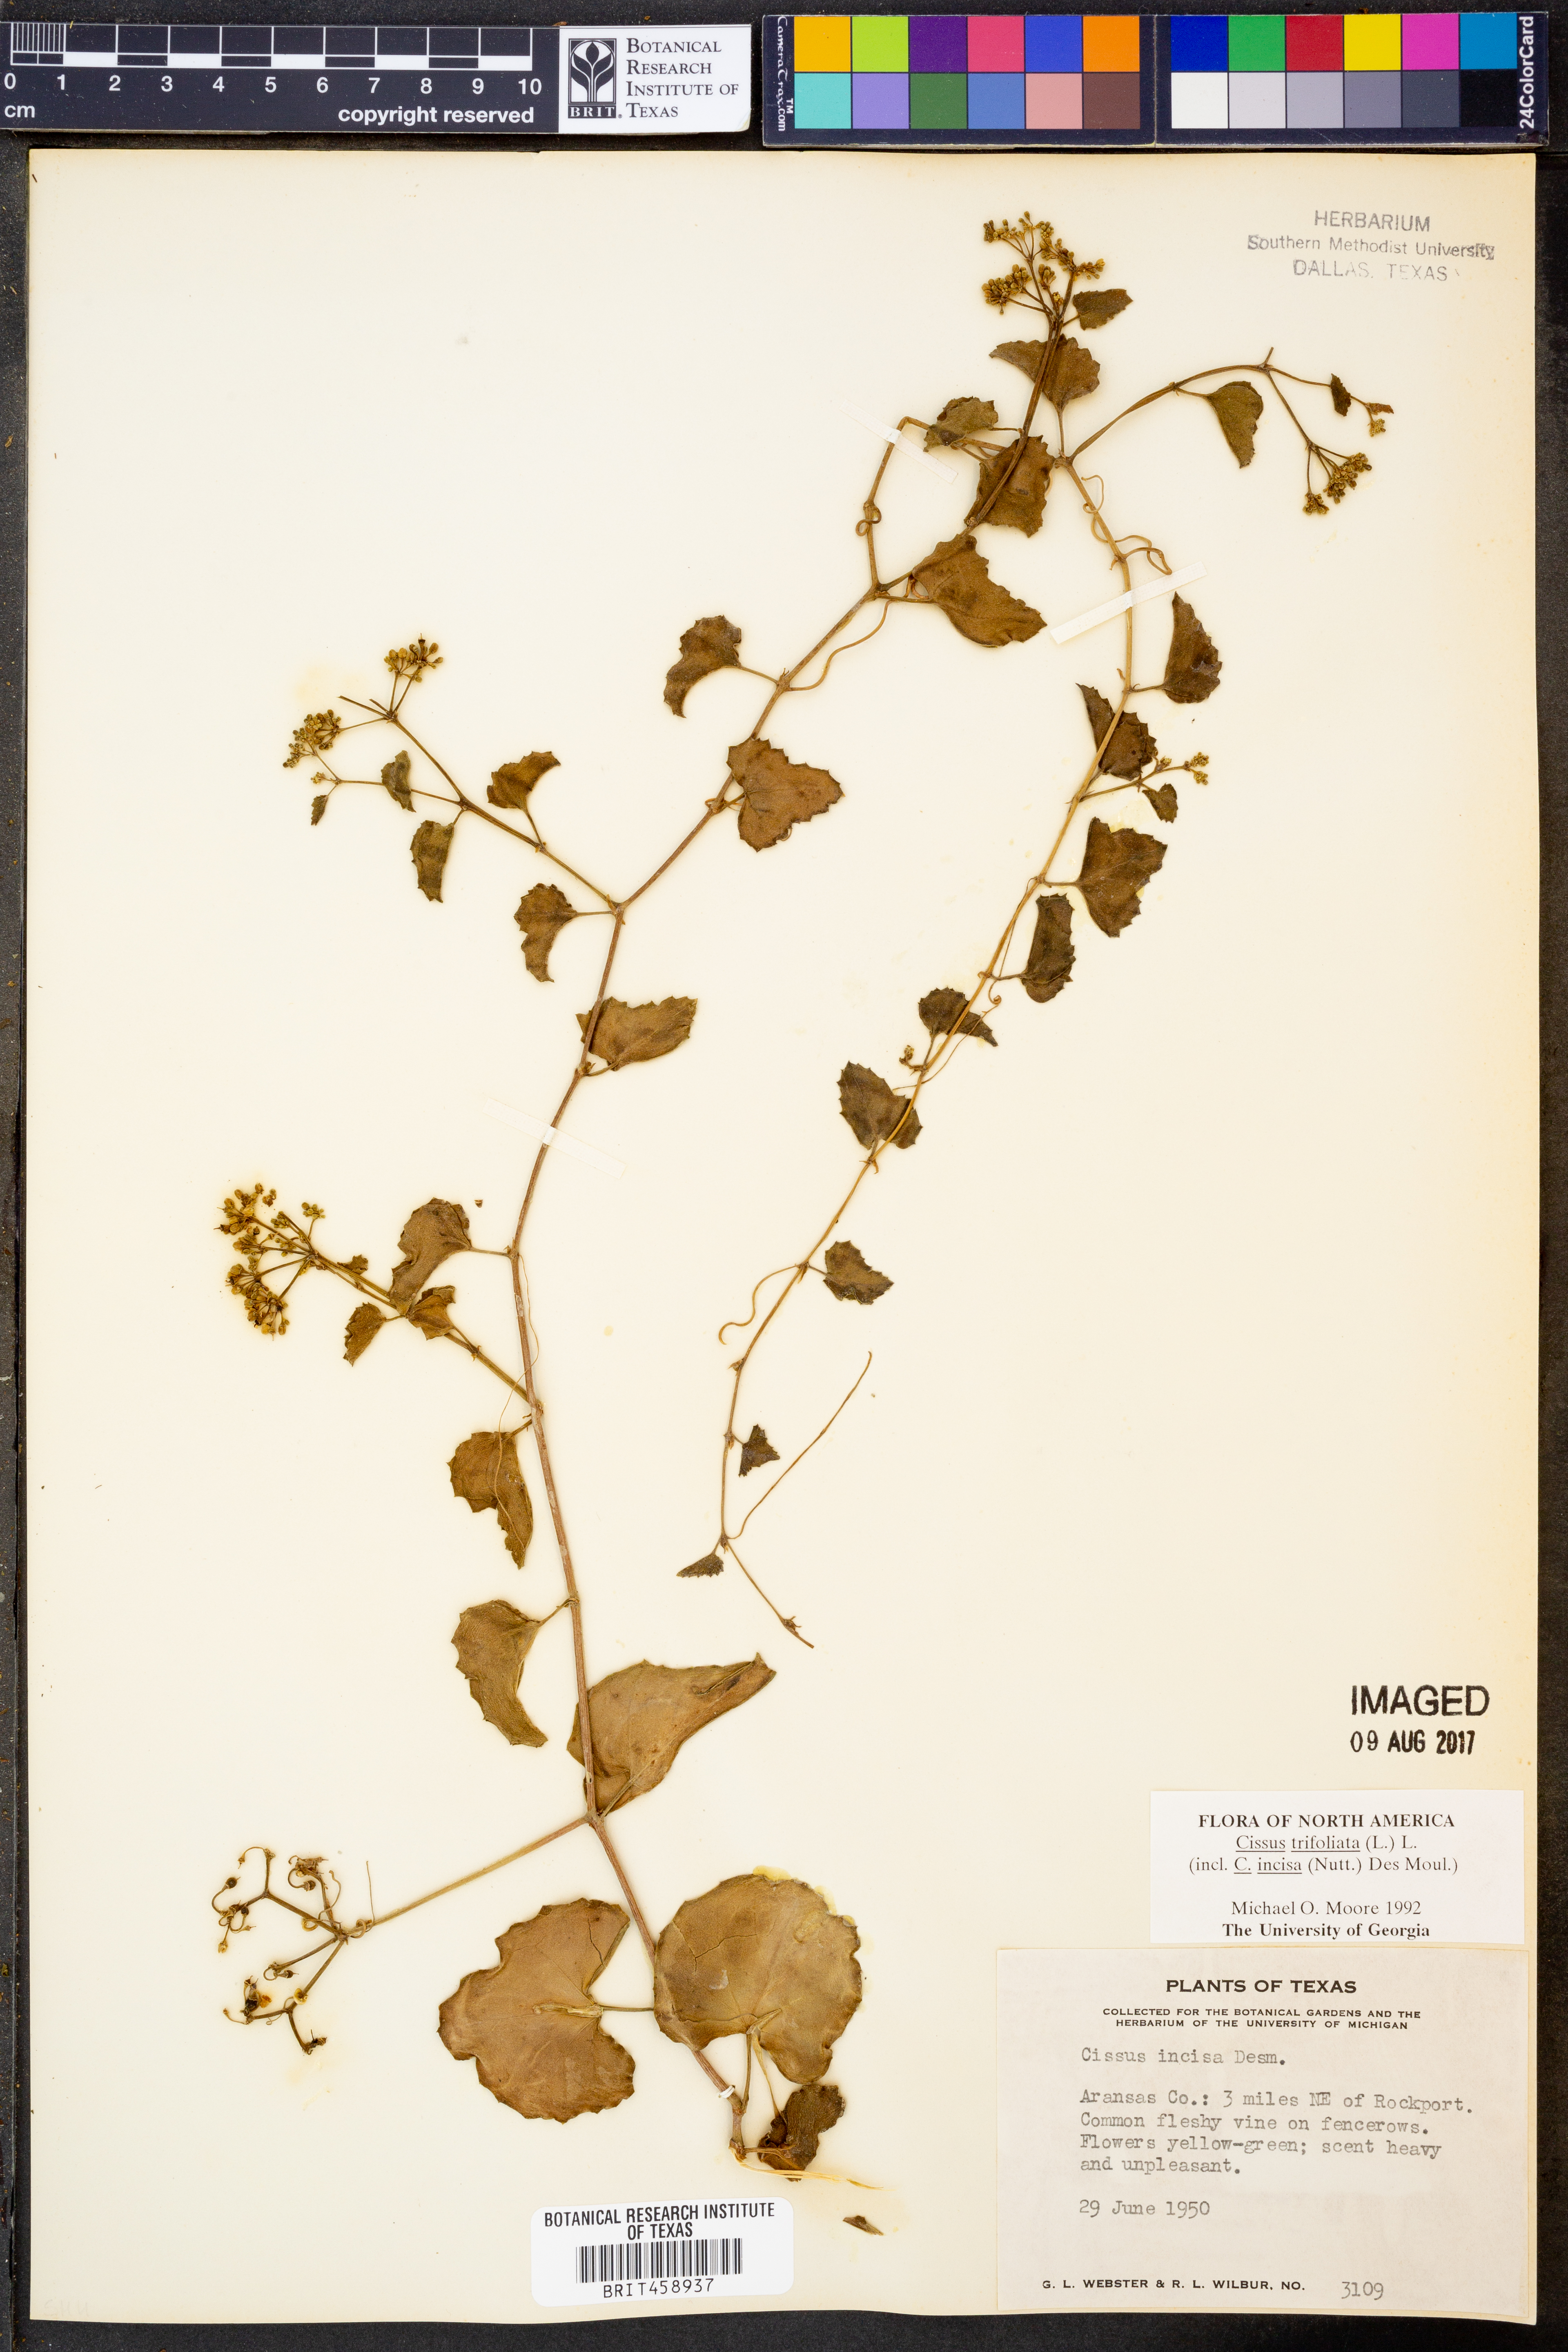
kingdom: Plantae
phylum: Tracheophyta
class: Magnoliopsida
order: Vitales
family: Vitaceae
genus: Cissus
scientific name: Cissus trifoliata
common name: Vine-sorrel
